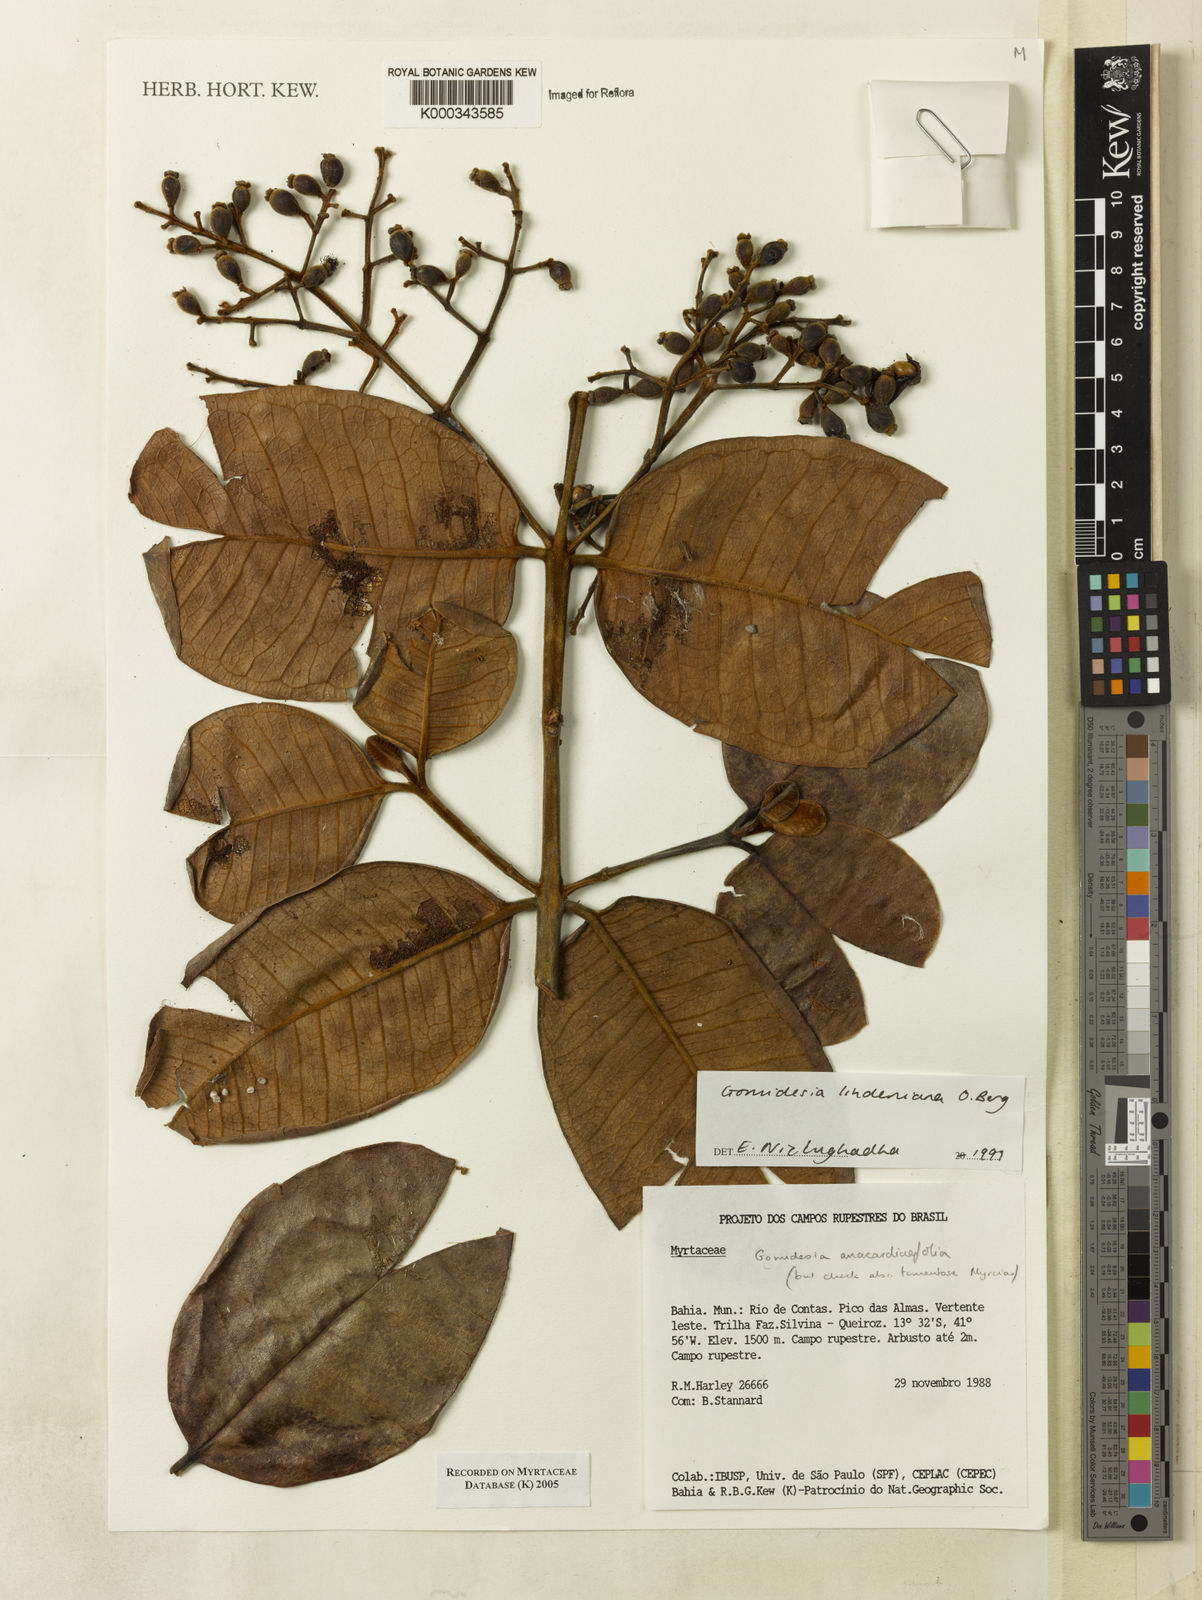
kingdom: Plantae
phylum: Tracheophyta
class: Magnoliopsida
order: Myrtales
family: Myrtaceae
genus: Myrcia
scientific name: Myrcia fenzliana
